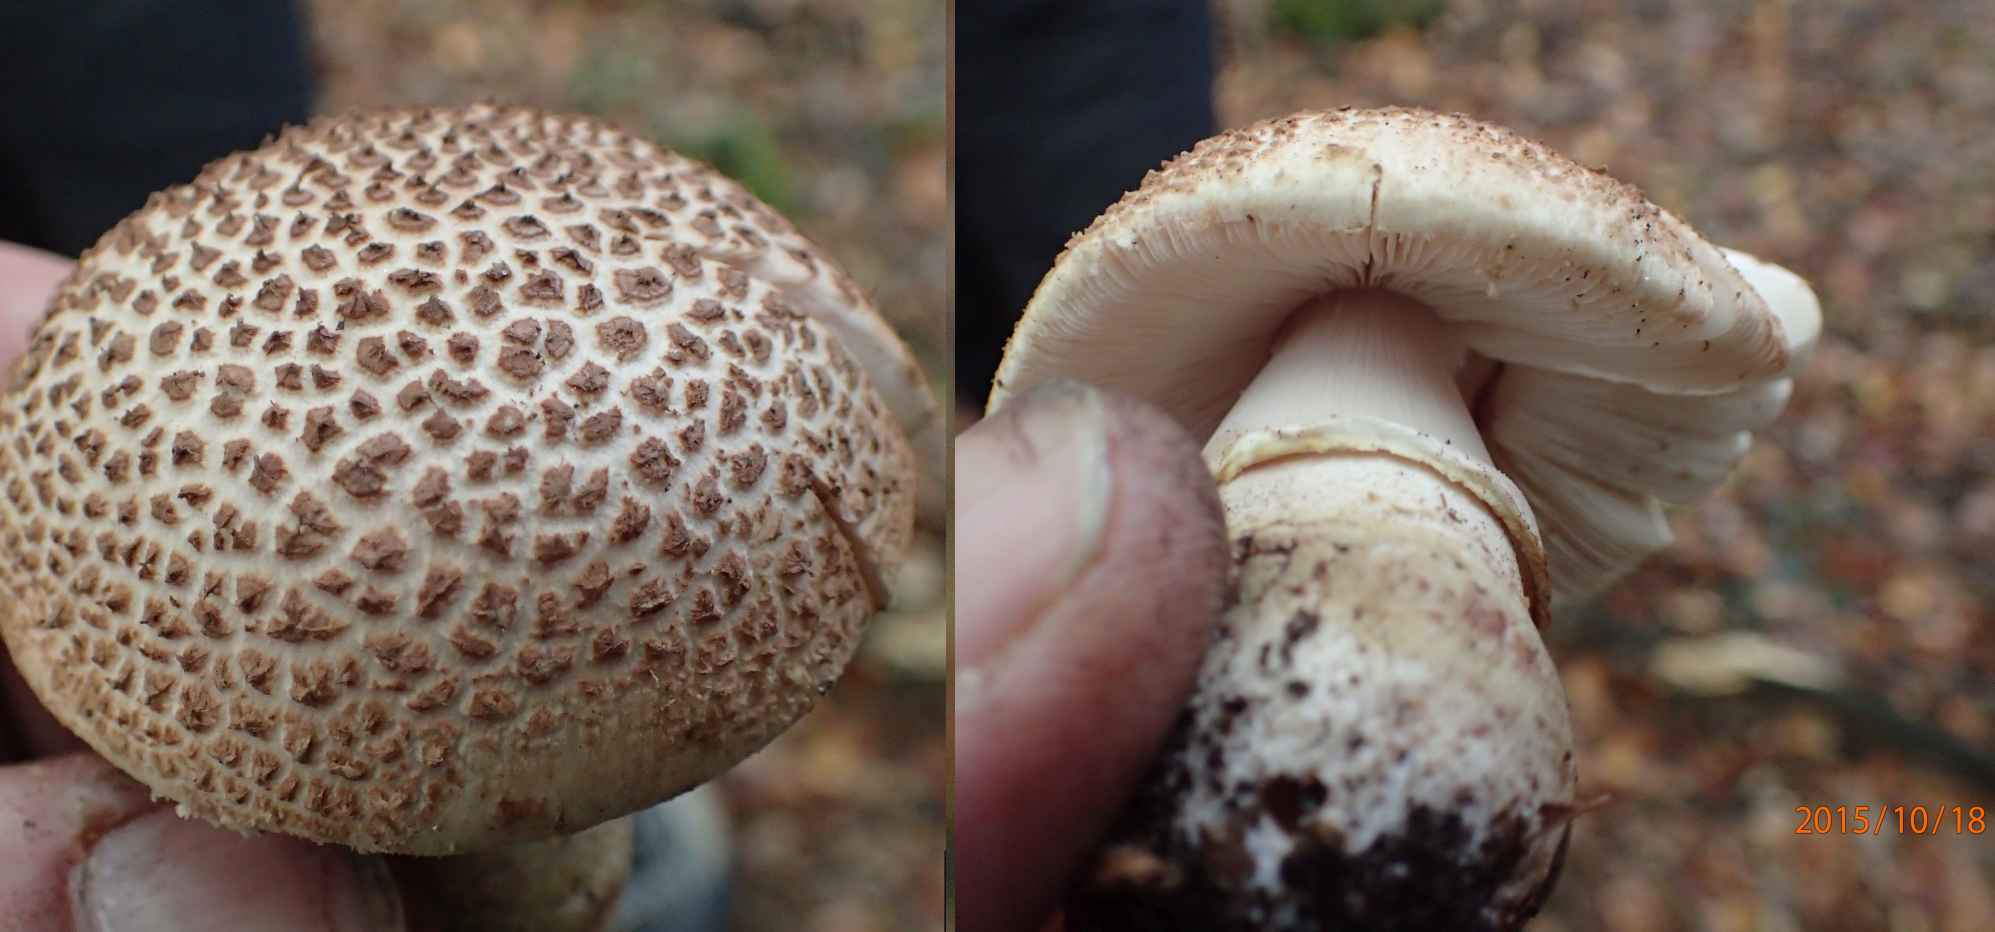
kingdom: Fungi
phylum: Basidiomycota
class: Agaricomycetes
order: Agaricales
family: Amanitaceae
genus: Amanita
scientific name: Amanita rubescens
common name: rødmende fluesvamp
